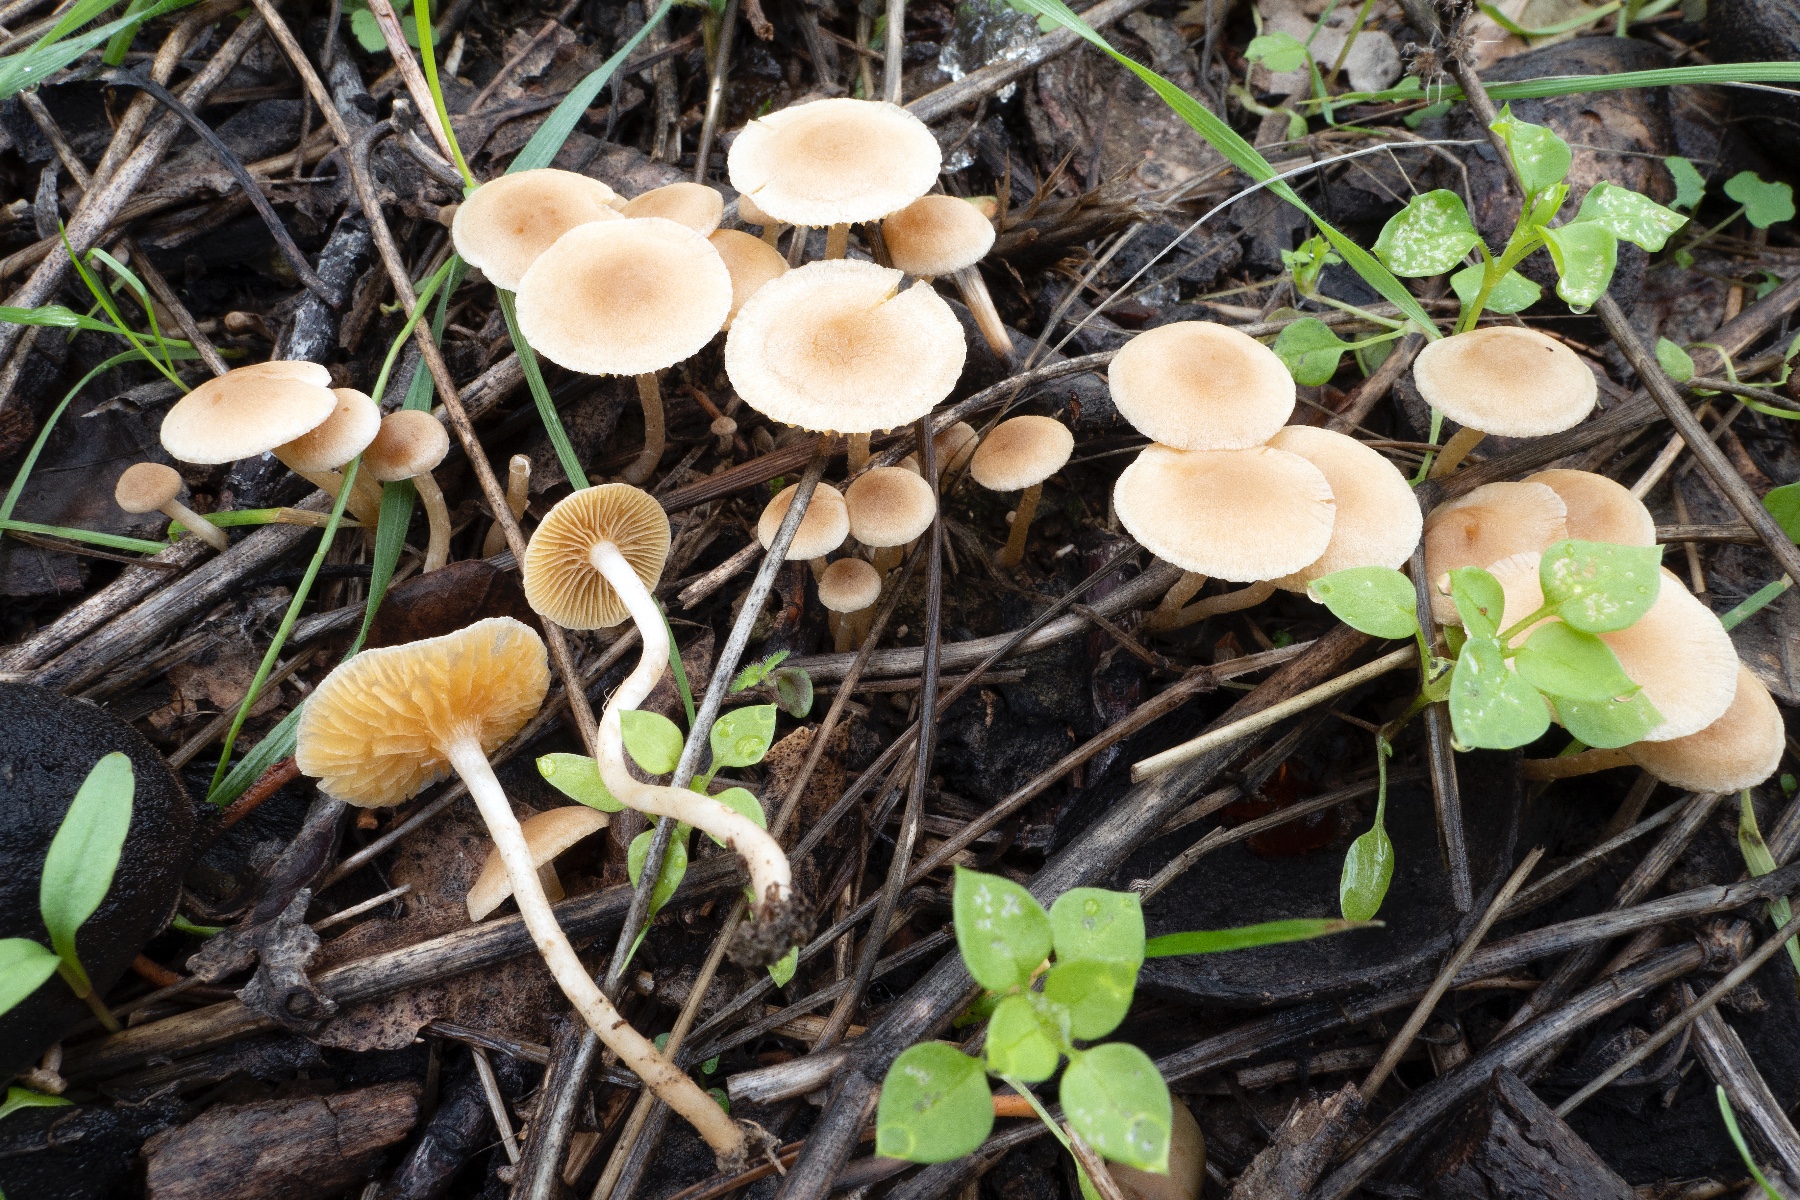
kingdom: Fungi
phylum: Basidiomycota
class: Agaricomycetes
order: Agaricales
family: Tubariaceae
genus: Tubaria
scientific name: Tubaria dispersa
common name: tjørne-fnughat
